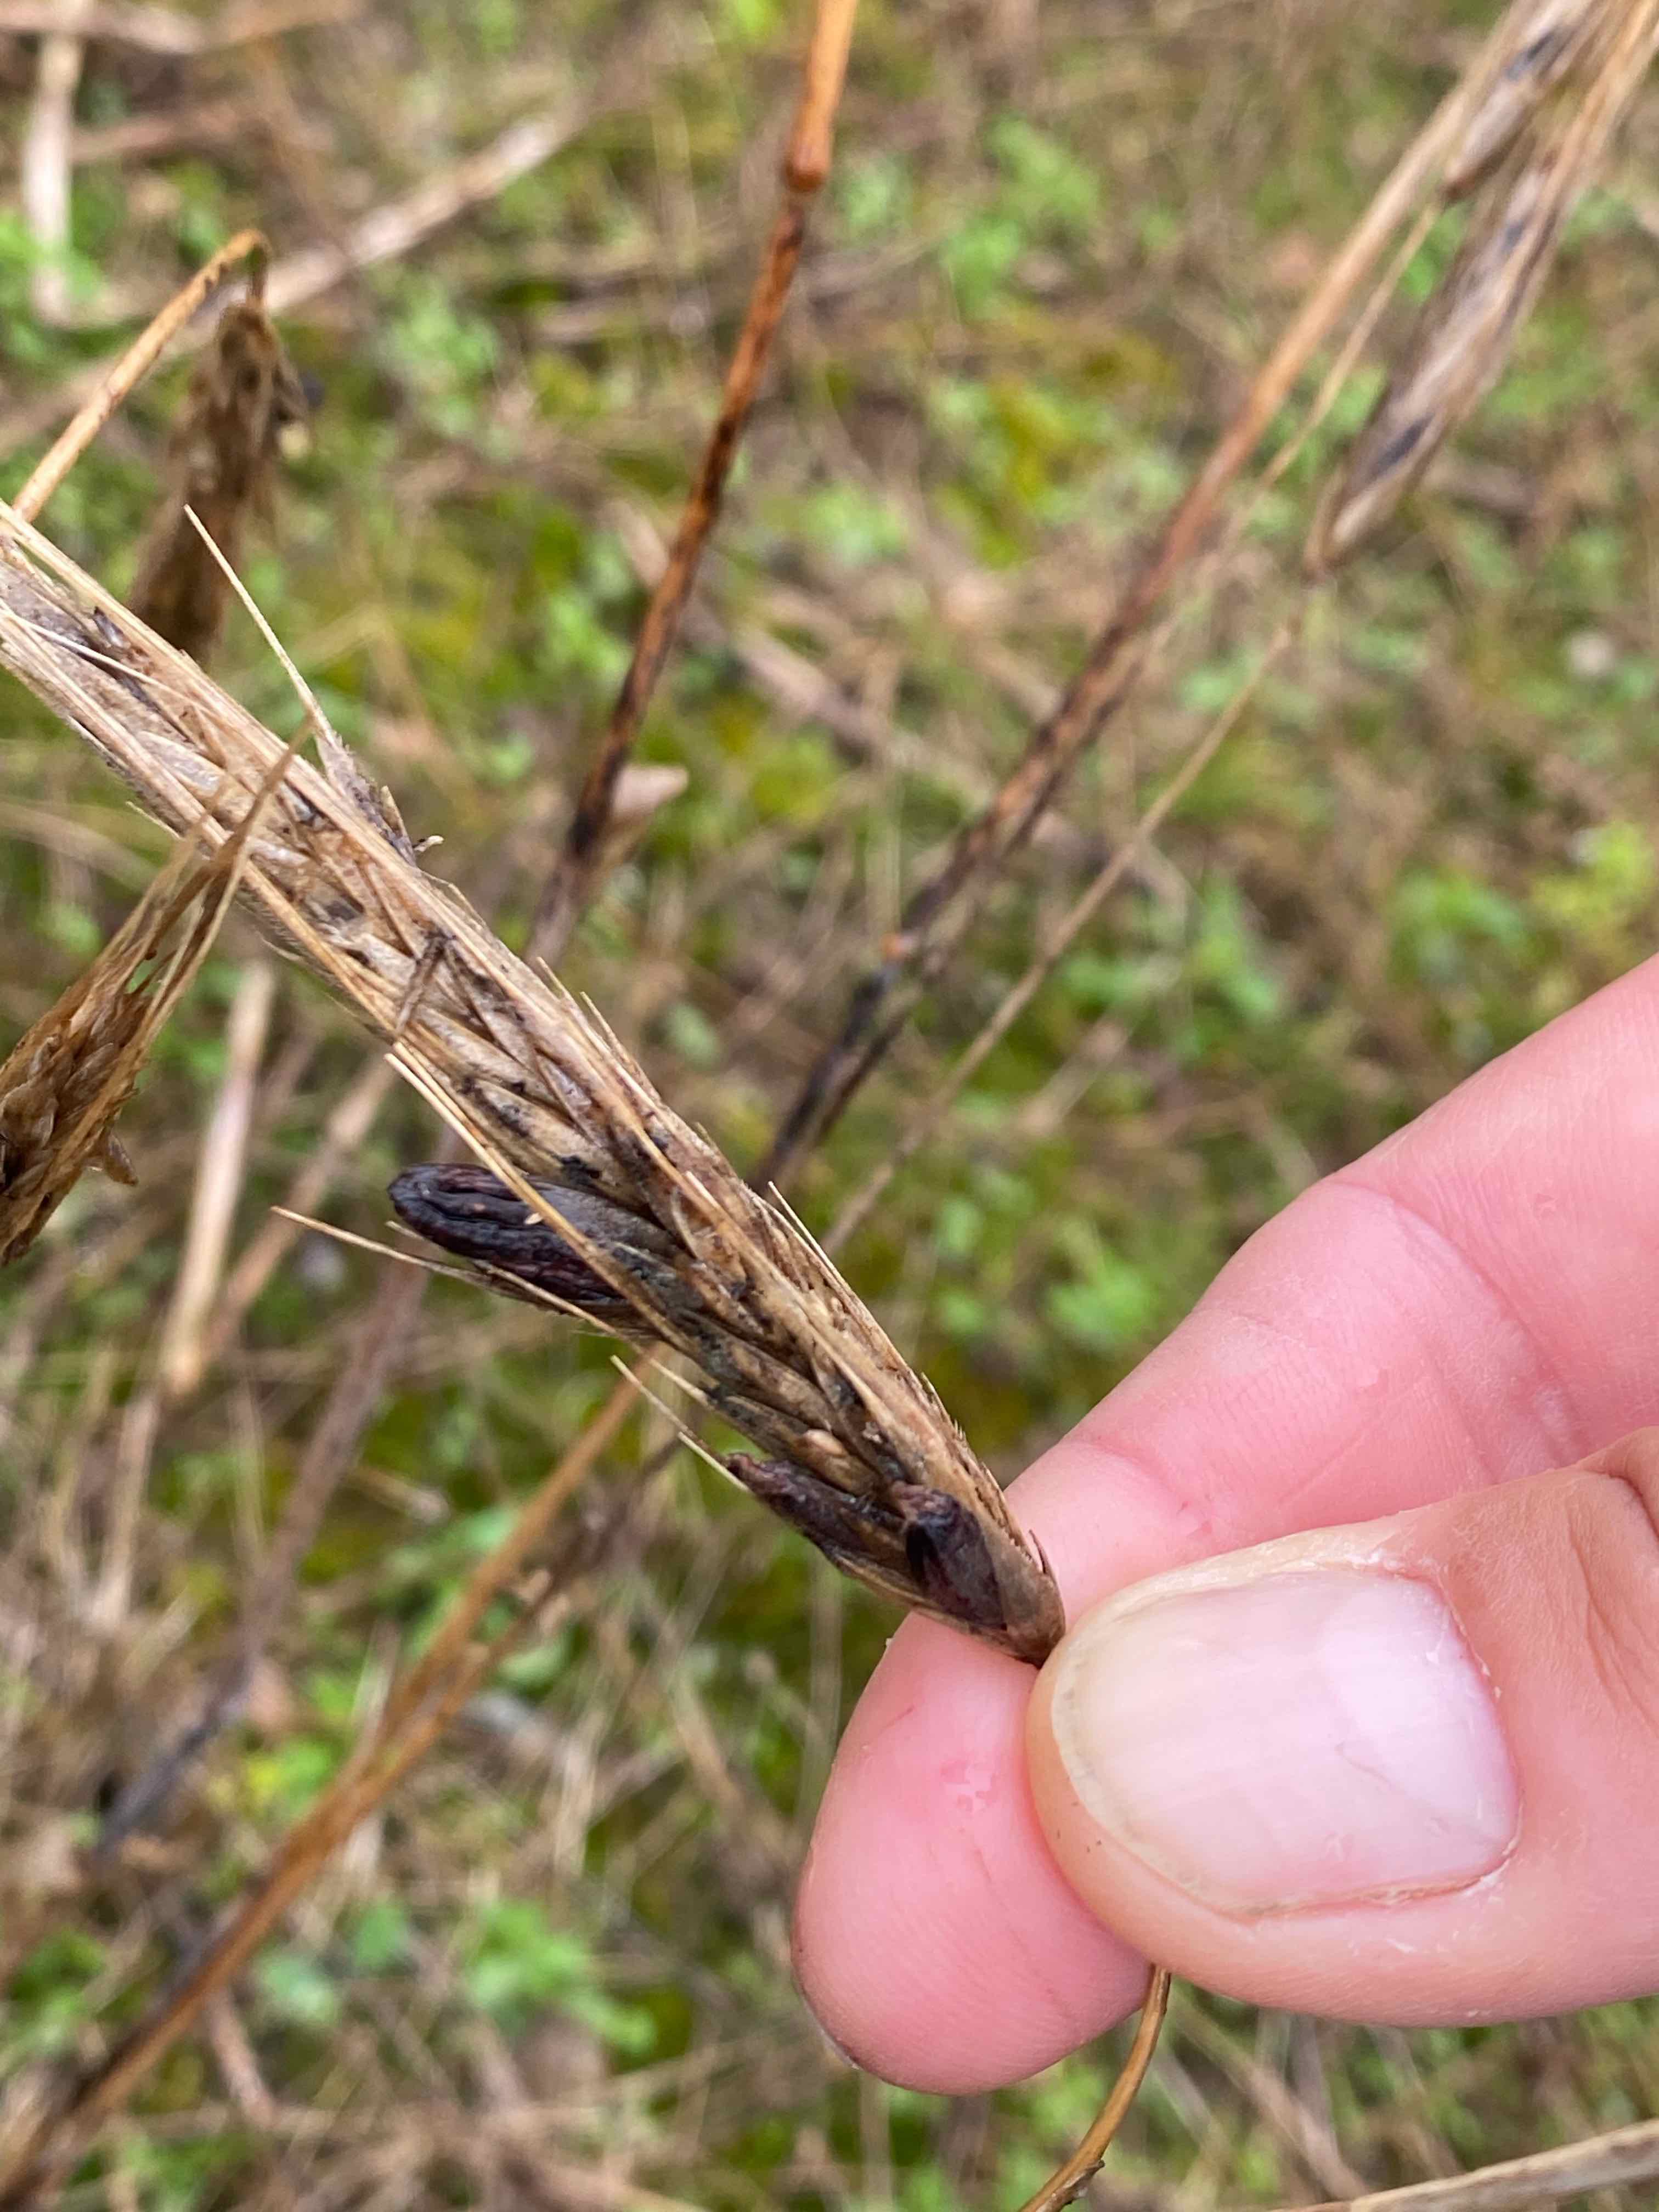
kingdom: Fungi
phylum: Ascomycota
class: Sordariomycetes
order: Hypocreales
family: Clavicipitaceae
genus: Claviceps
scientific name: Claviceps purpurea
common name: almindelig meldrøjer
